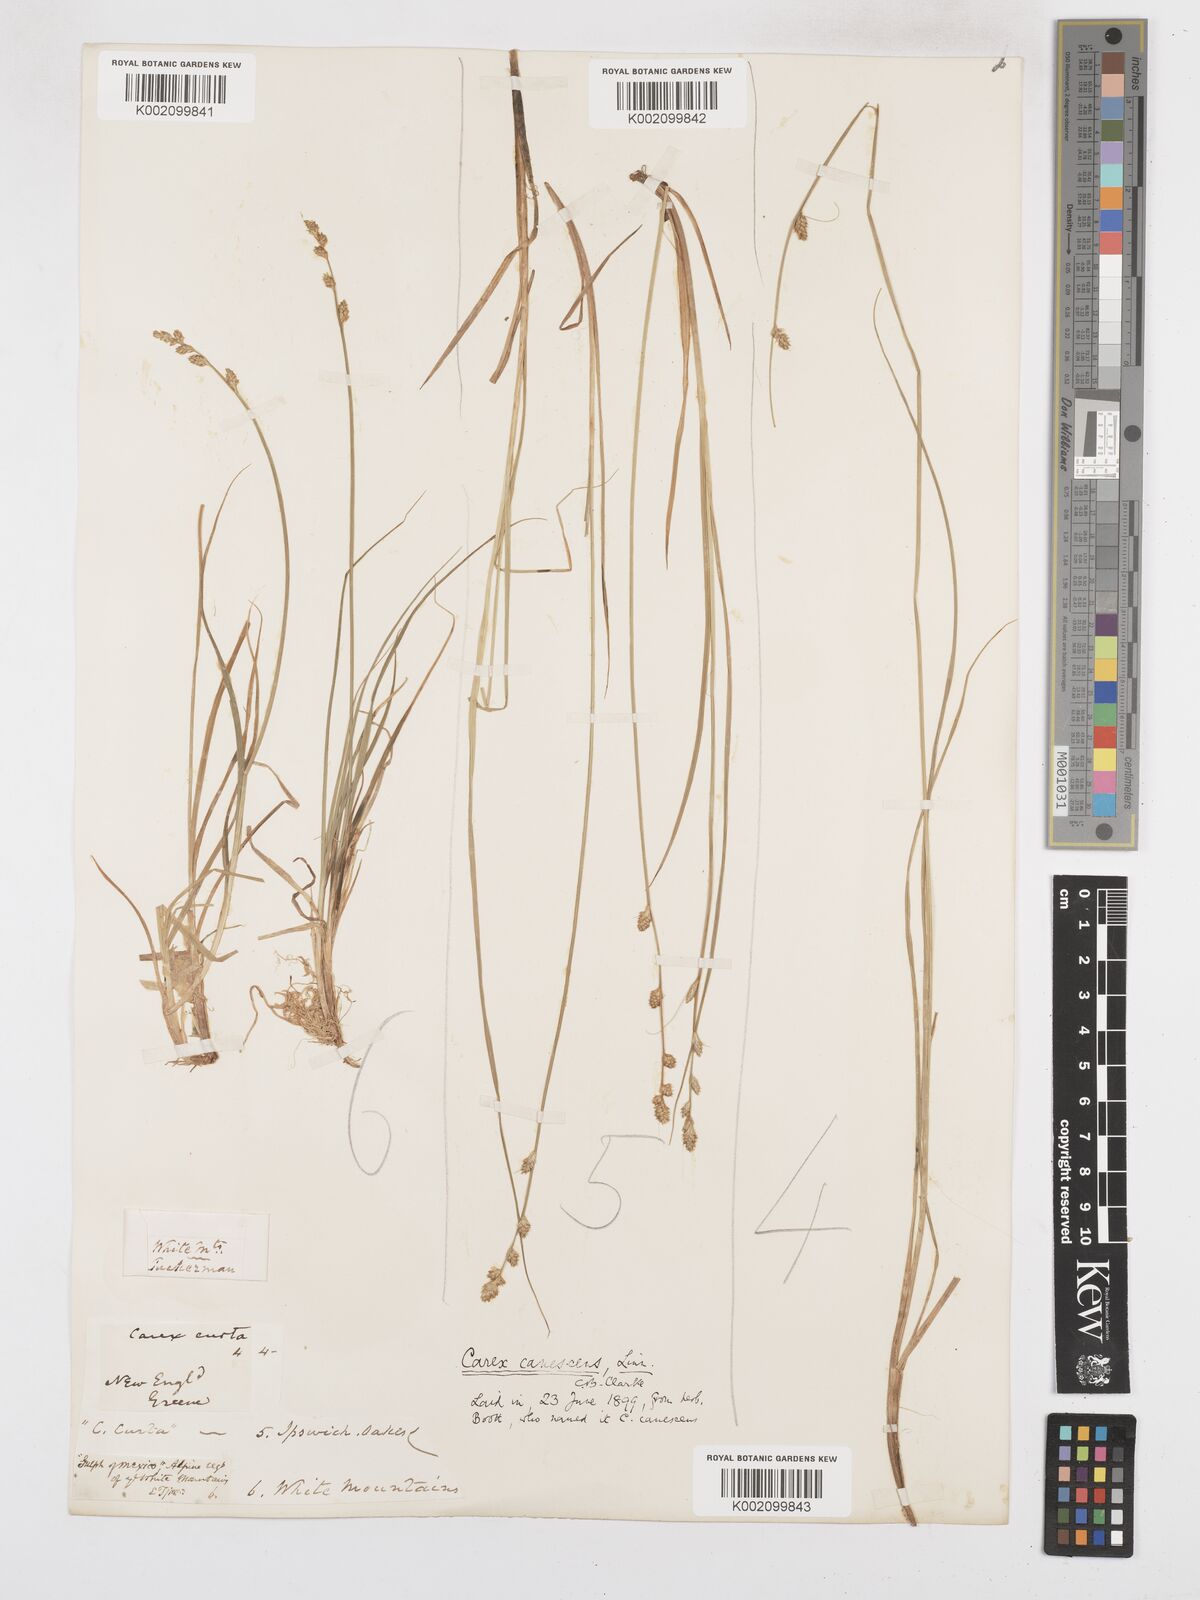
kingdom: Plantae
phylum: Tracheophyta
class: Liliopsida
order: Poales
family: Cyperaceae
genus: Carex
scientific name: Carex curta
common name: White sedge
